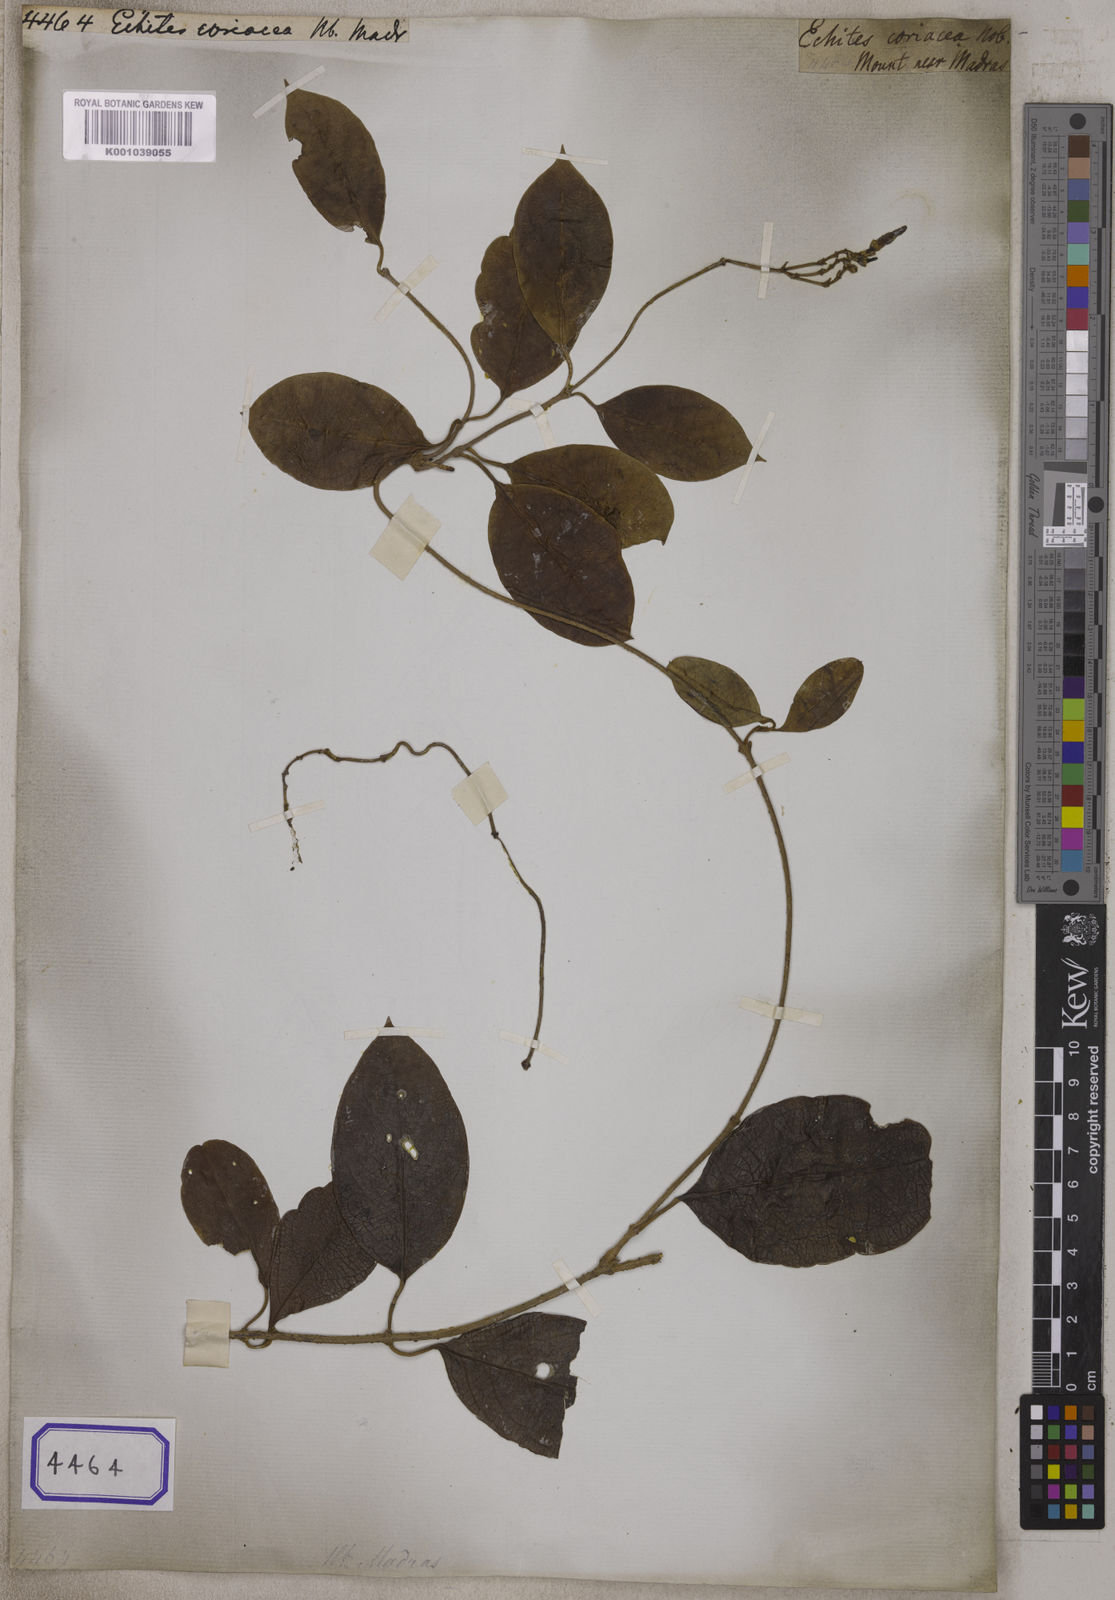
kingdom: Plantae
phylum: Tracheophyta
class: Magnoliopsida
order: Gentianales
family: Apocynaceae
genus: Echites
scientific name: Echites
